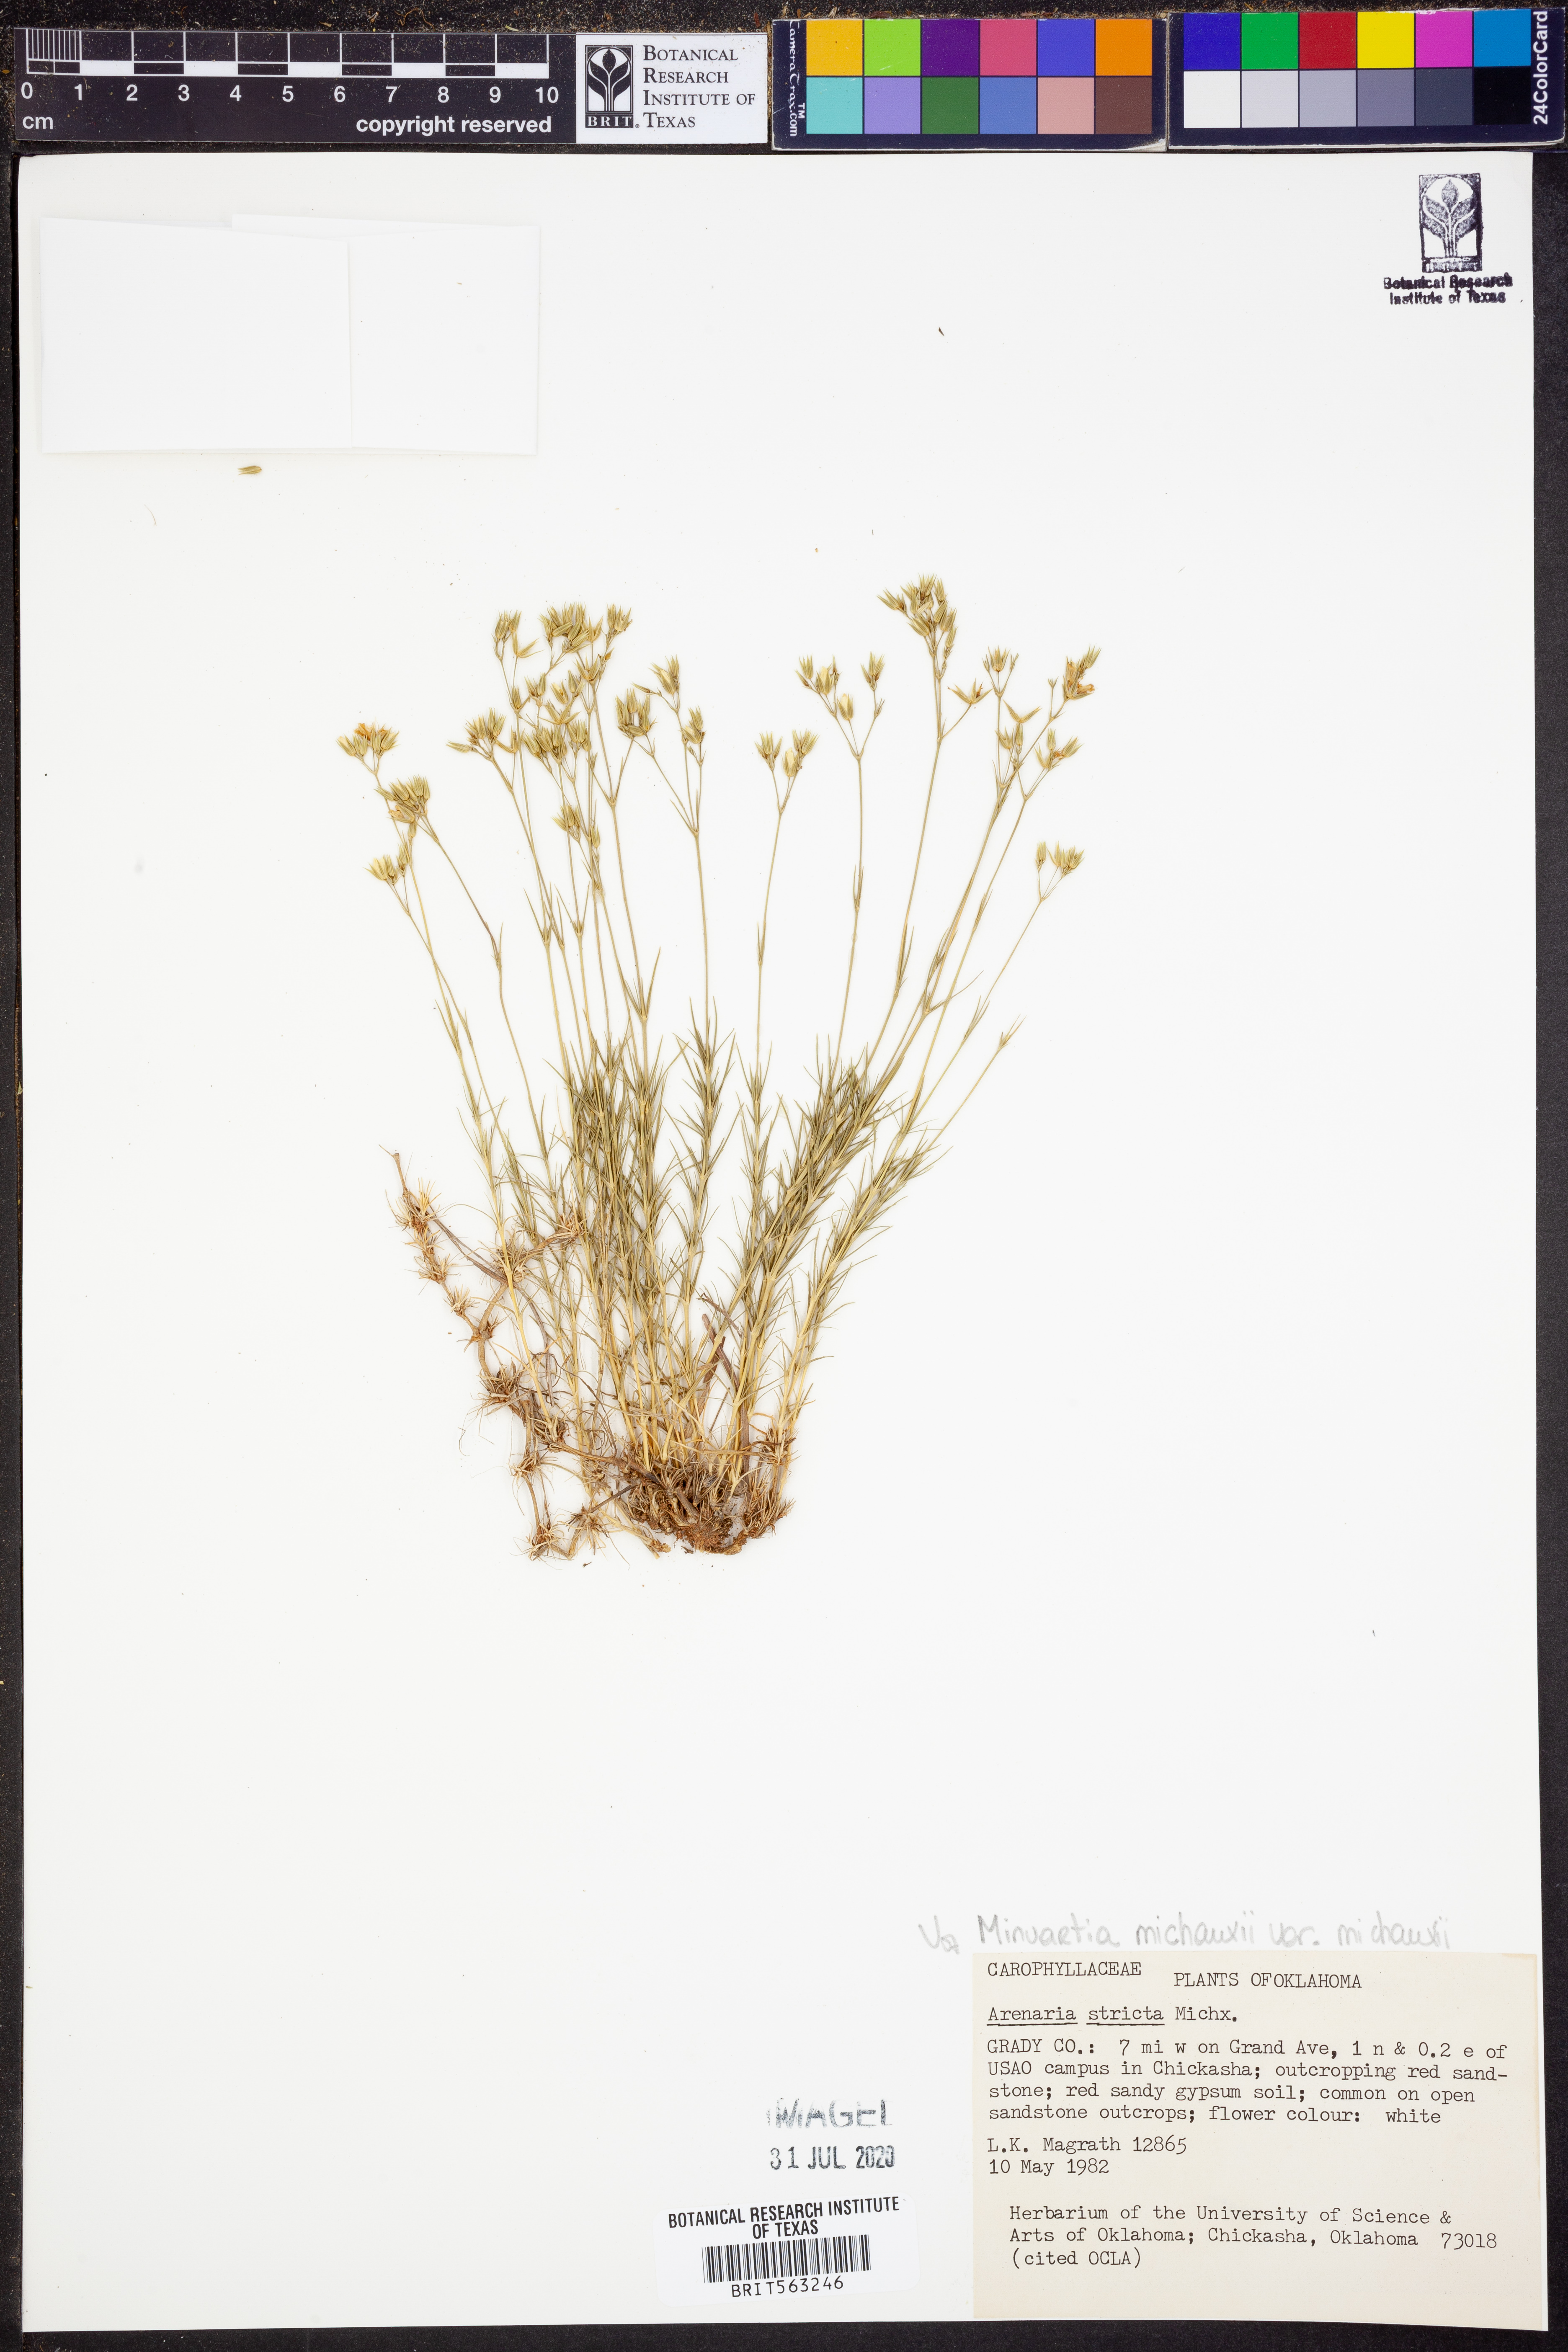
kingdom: Plantae
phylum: Tracheophyta
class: Magnoliopsida
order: Caryophyllales
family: Caryophyllaceae
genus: Sabulina
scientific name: Sabulina michauxii
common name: Michaux's stitchwort
